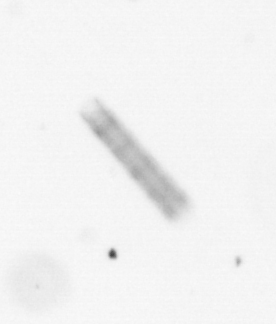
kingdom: Chromista
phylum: Ochrophyta
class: Bacillariophyceae
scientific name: Bacillariophyceae
